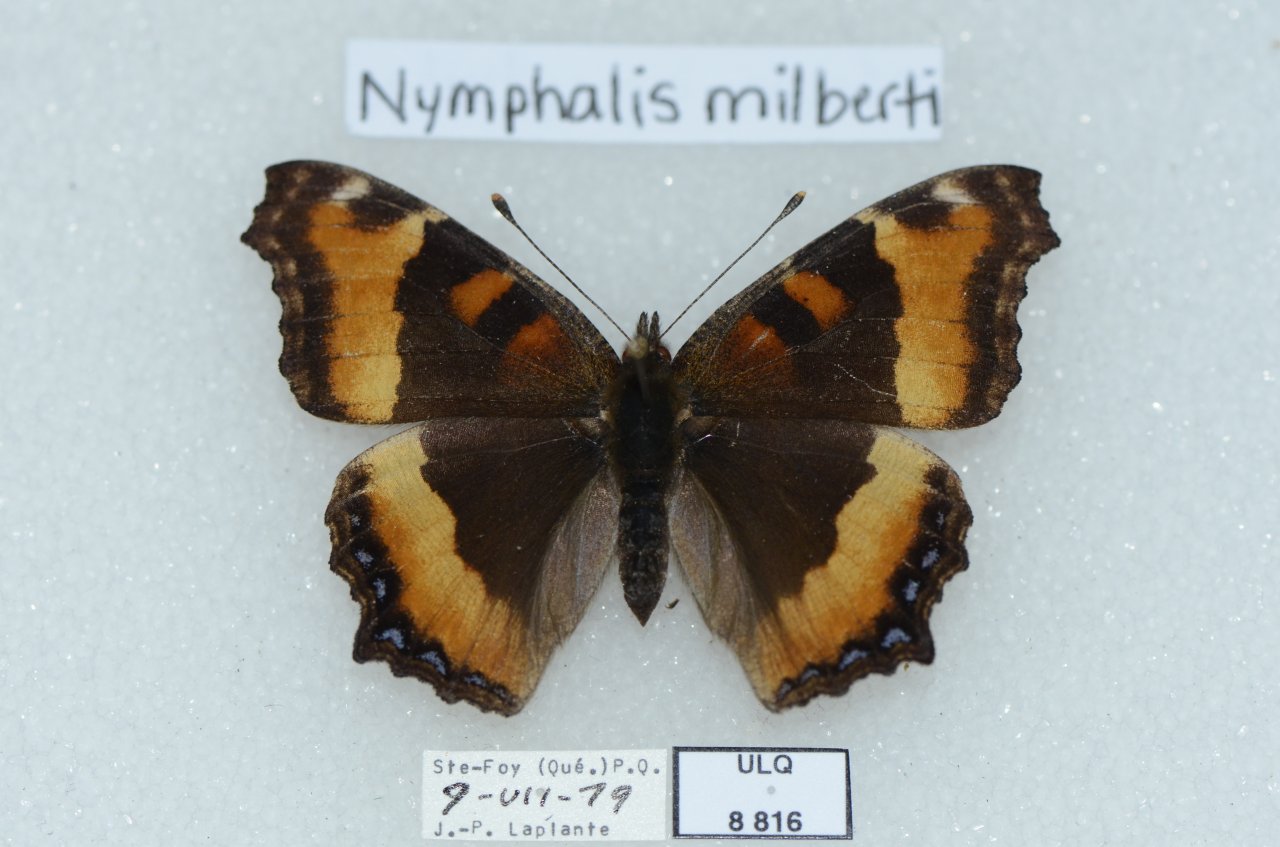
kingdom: Animalia
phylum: Arthropoda
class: Insecta
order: Lepidoptera
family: Nymphalidae
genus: Aglais
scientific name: Aglais milberti
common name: Milbert's Tortoiseshell
